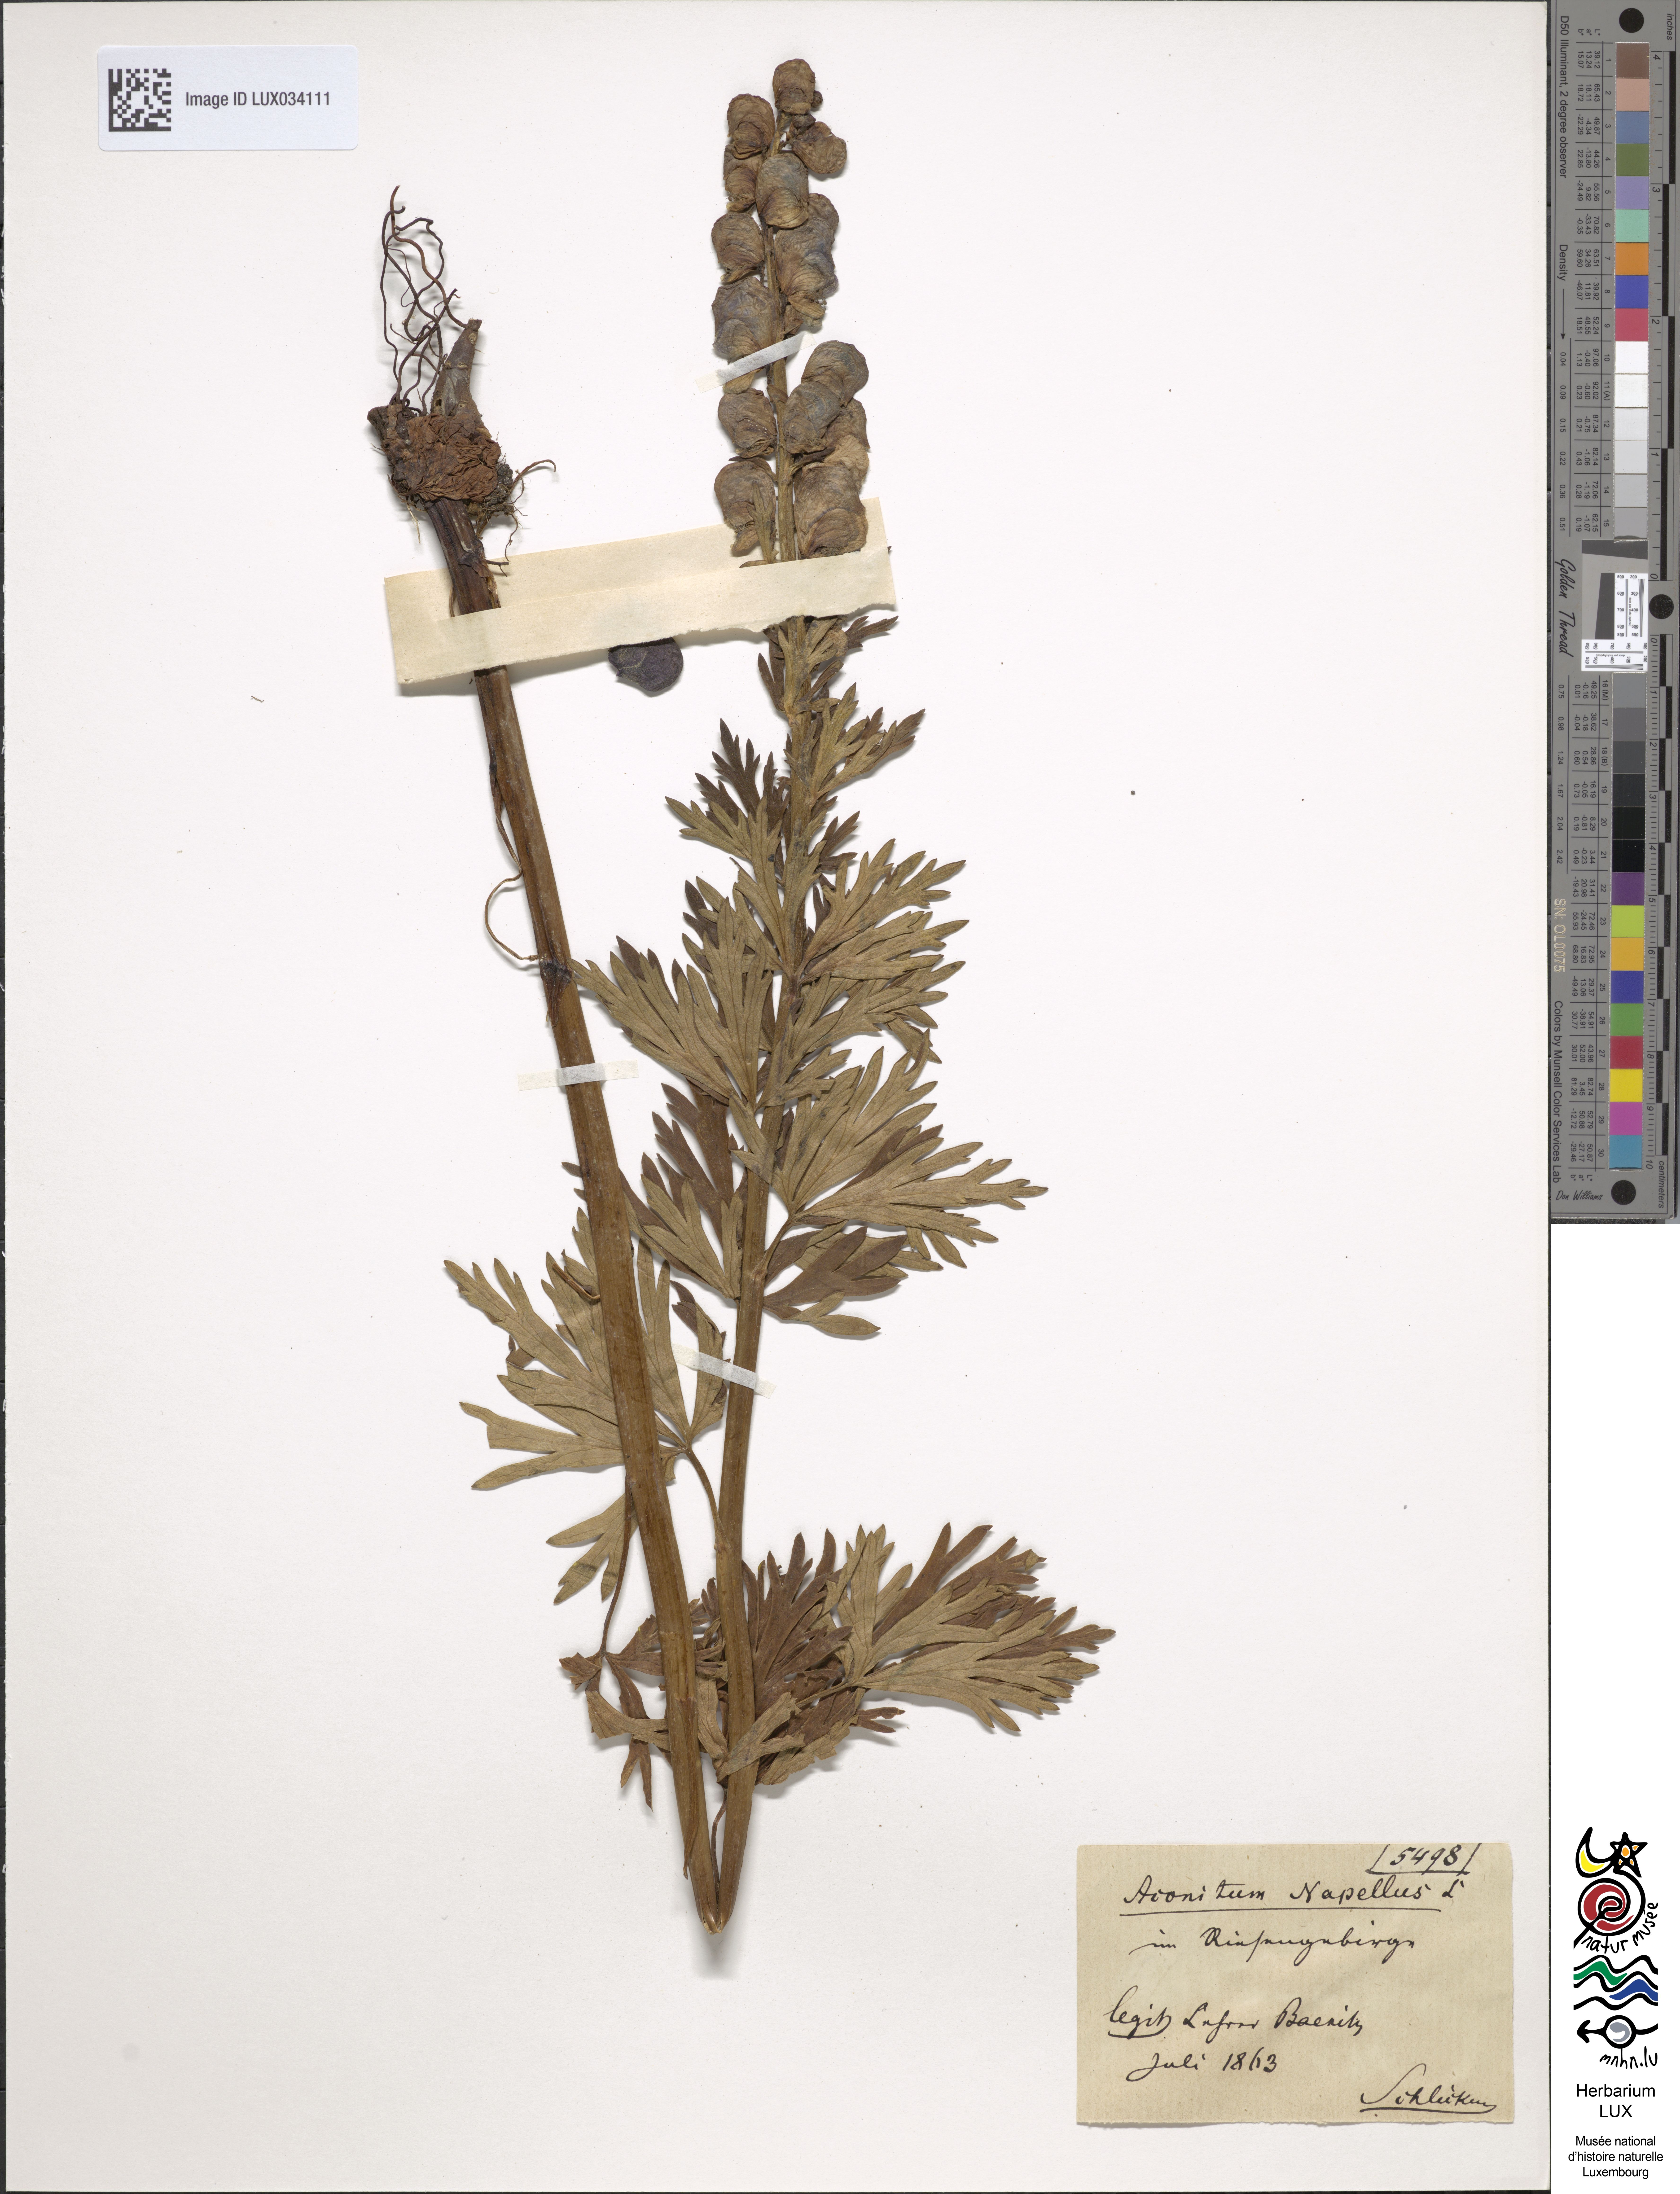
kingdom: Plantae
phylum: Tracheophyta
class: Magnoliopsida
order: Ranunculales
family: Ranunculaceae
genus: Aconitum
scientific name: Aconitum napellus
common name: Garden monkshood
